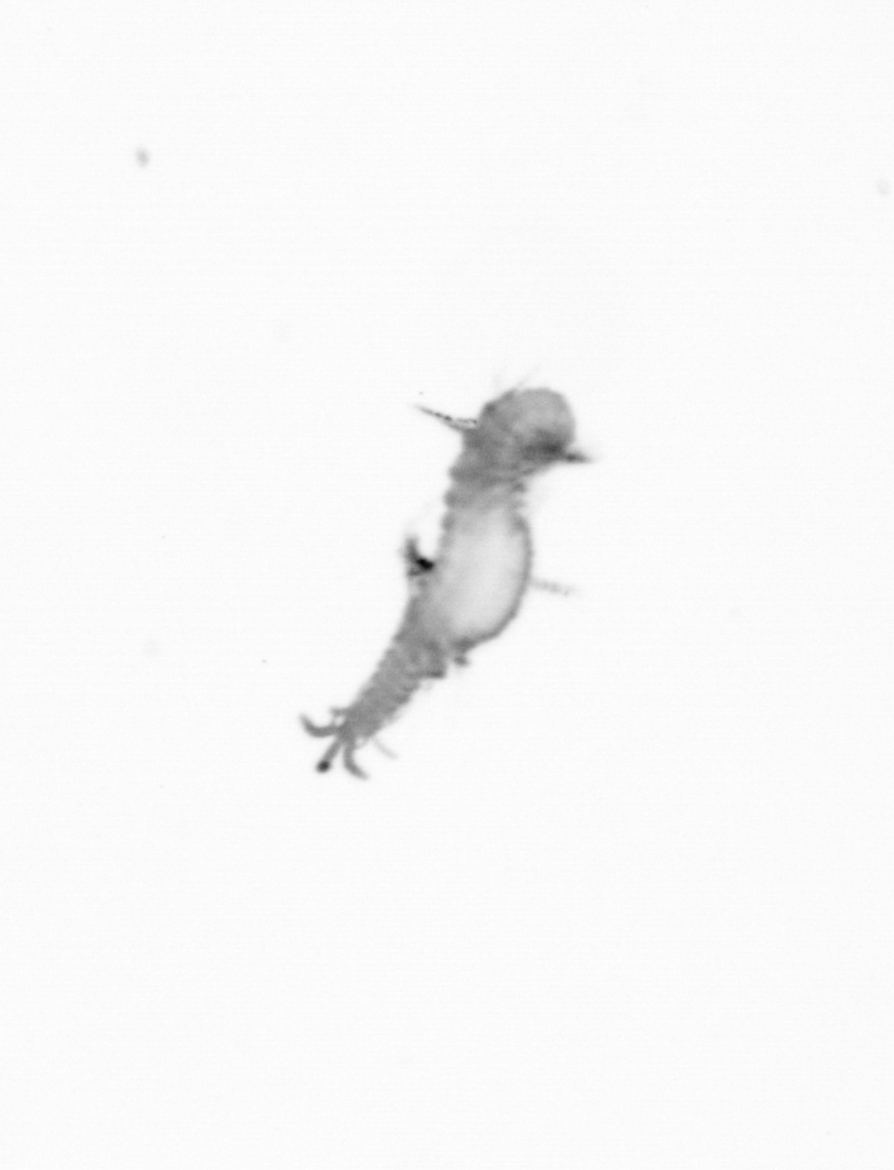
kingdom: Animalia
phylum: Annelida
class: Polychaeta
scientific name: Polychaeta
